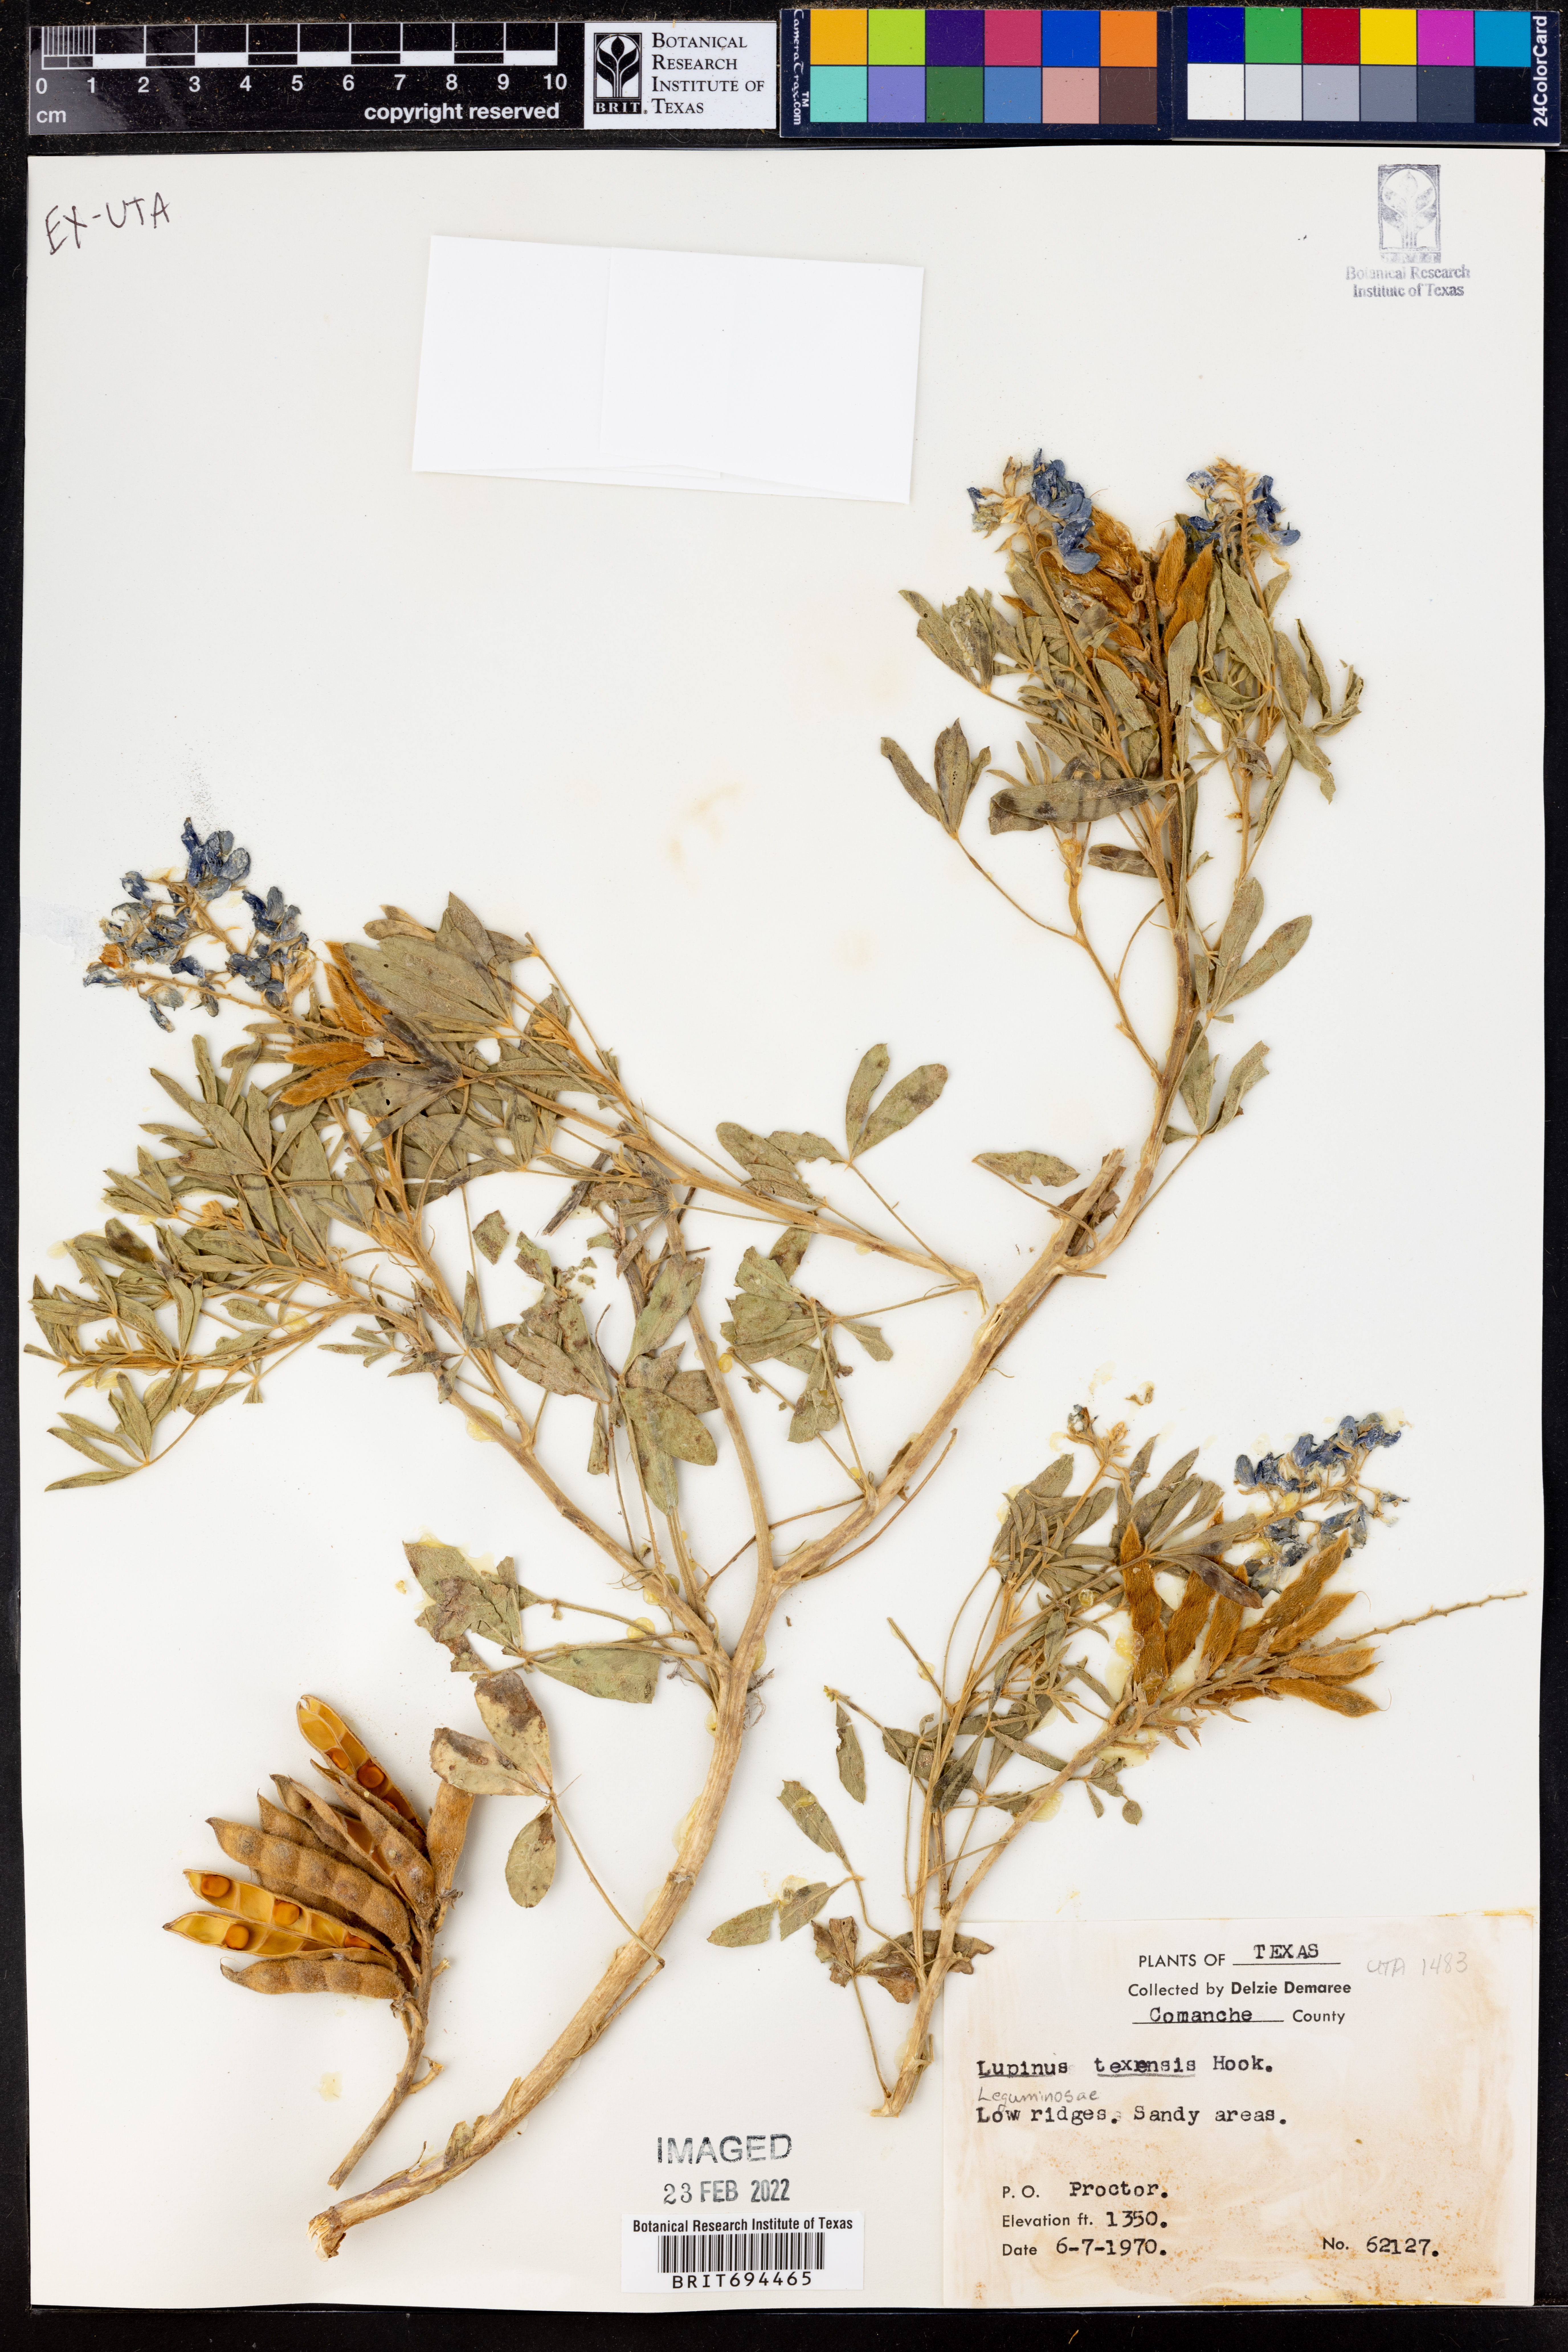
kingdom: Plantae
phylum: Tracheophyta
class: Magnoliopsida
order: Fabales
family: Fabaceae
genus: Lupinus
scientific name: Lupinus texensis
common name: Texas bluebonnet
